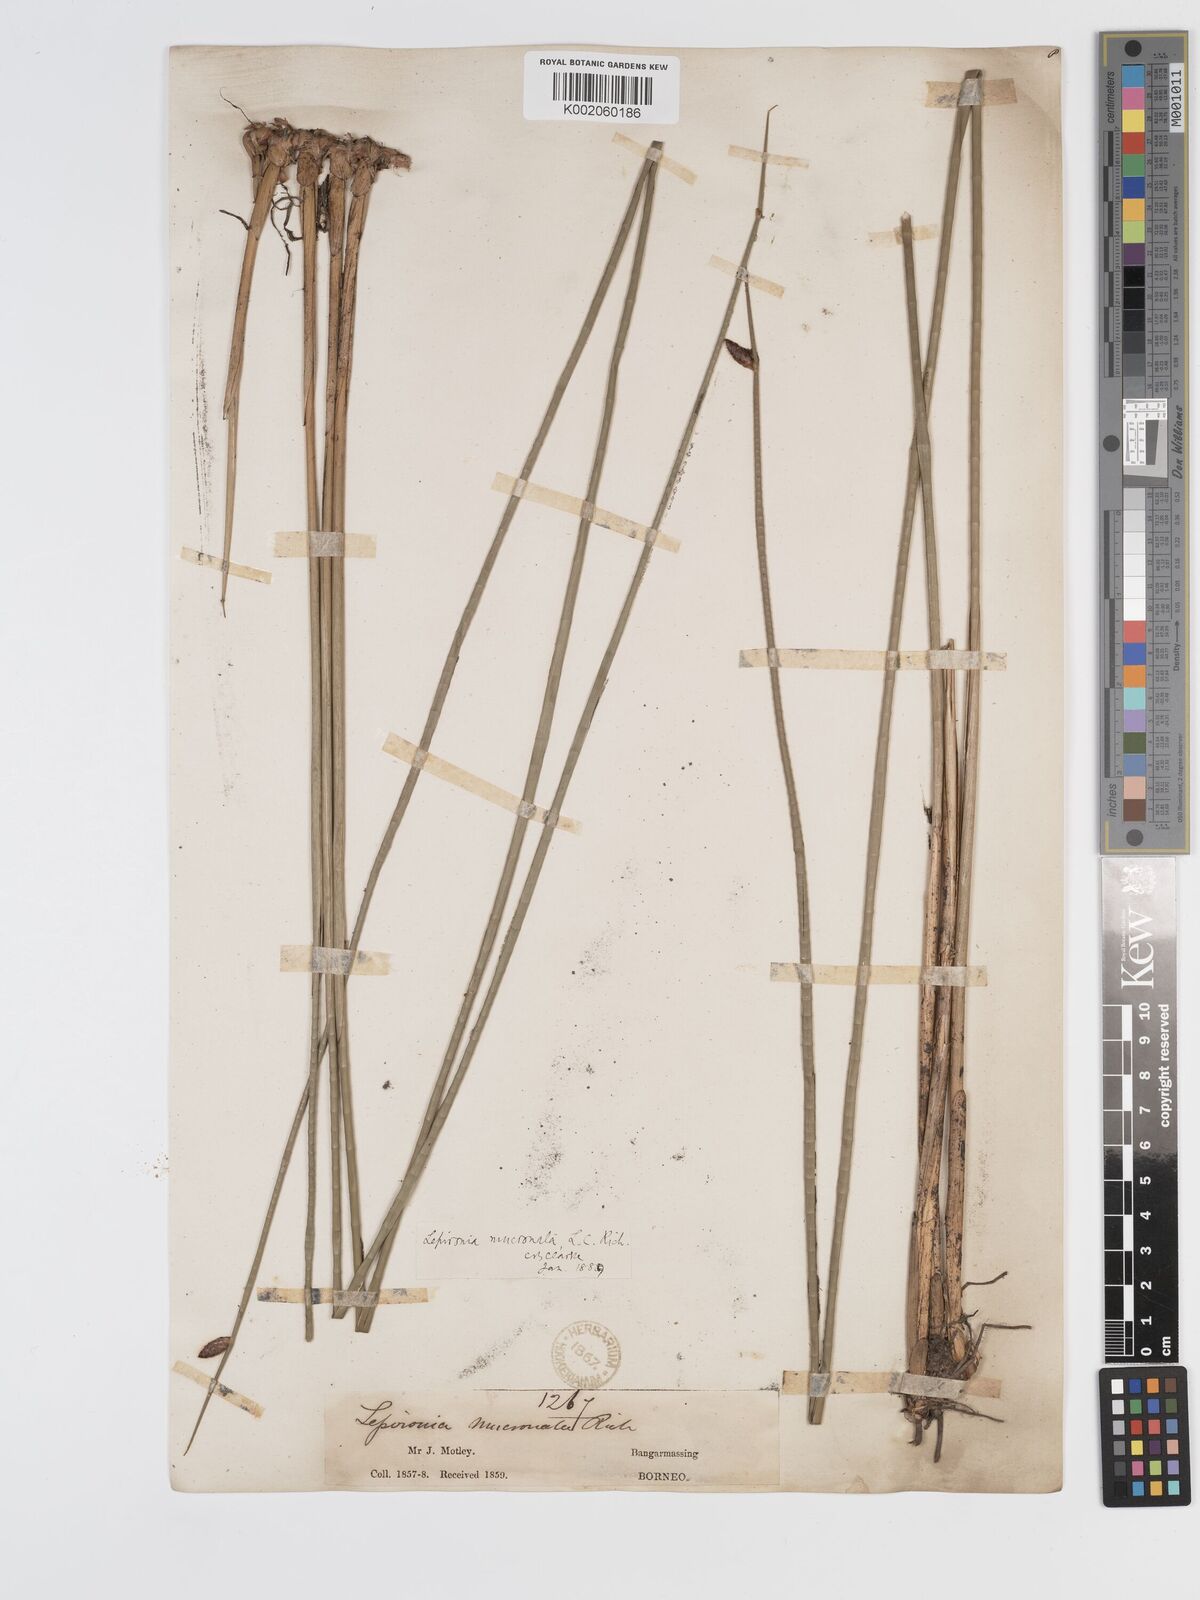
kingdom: Plantae
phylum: Tracheophyta
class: Liliopsida
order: Poales
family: Cyperaceae
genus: Lepironia
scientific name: Lepironia articulata
